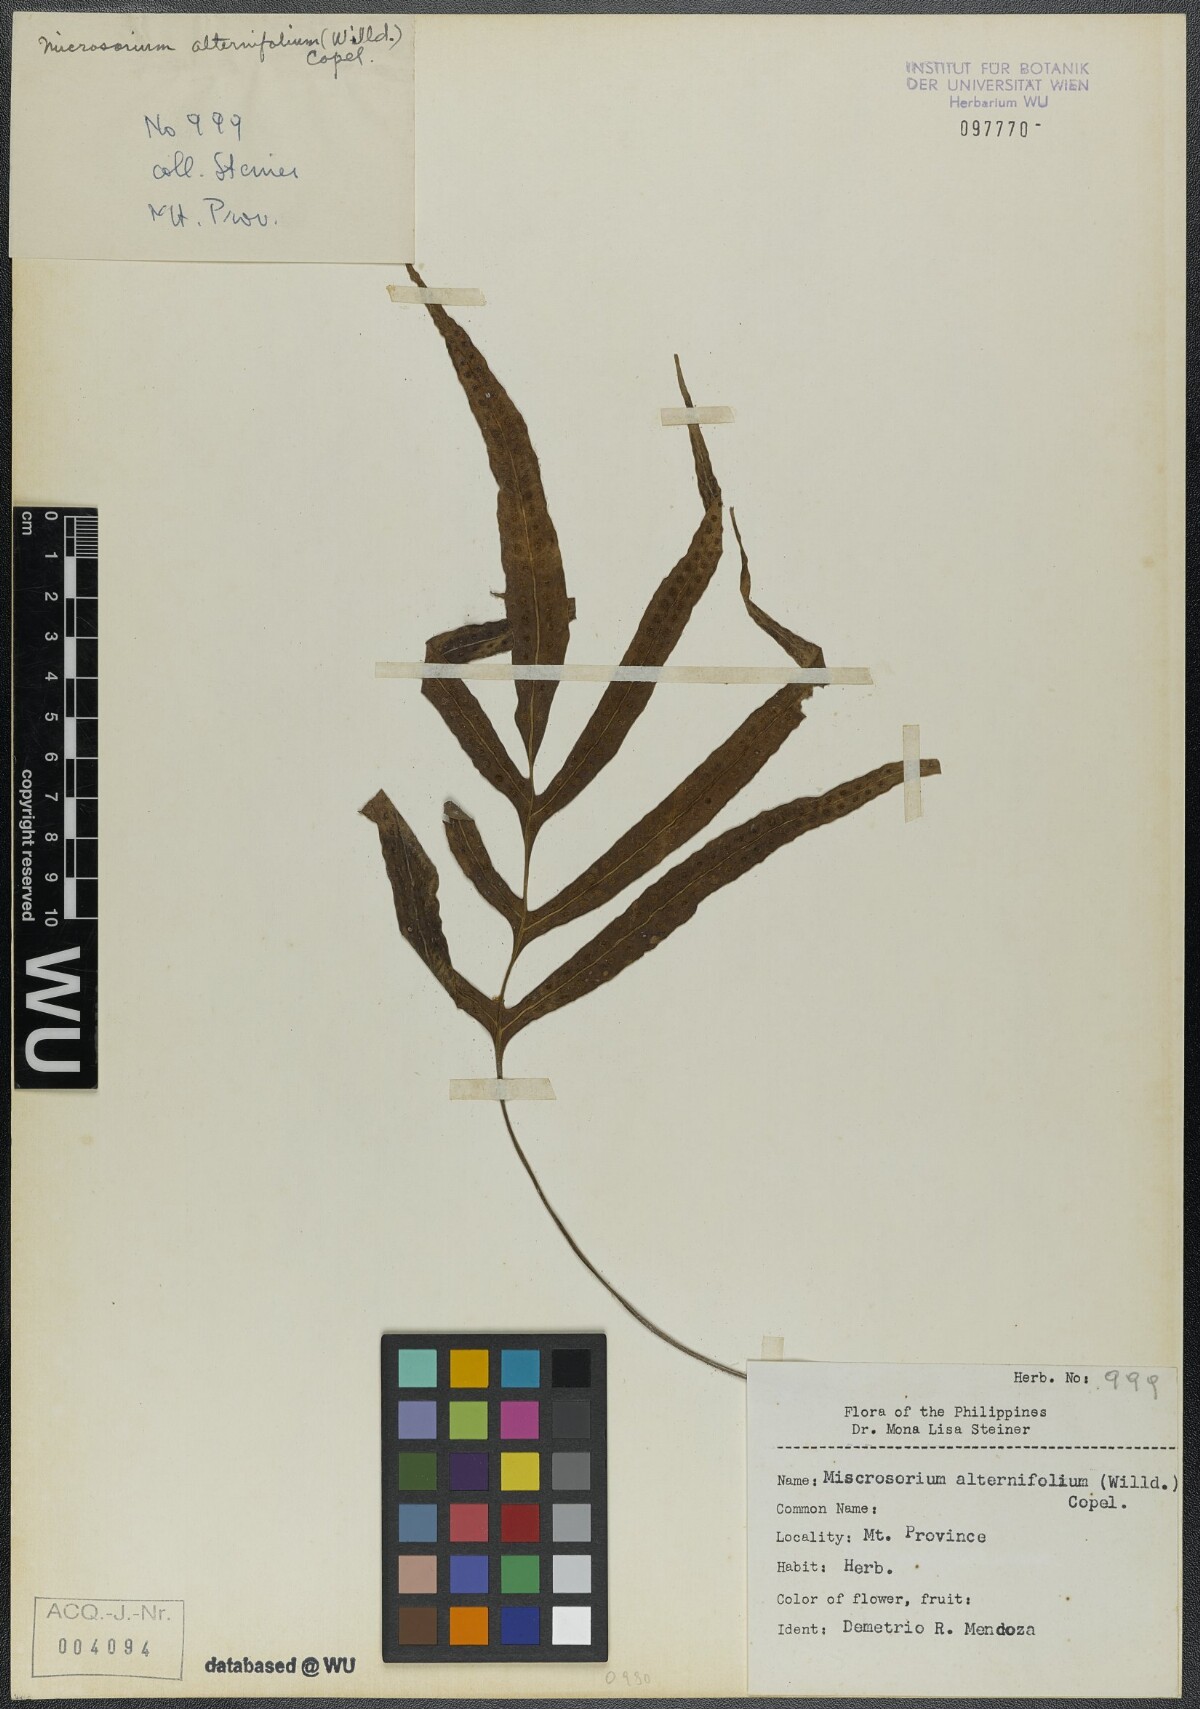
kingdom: Plantae
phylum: Tracheophyta
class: Polypodiopsida
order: Polypodiales
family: Polypodiaceae
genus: Microsorum
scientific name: Microsorum scolopendria
